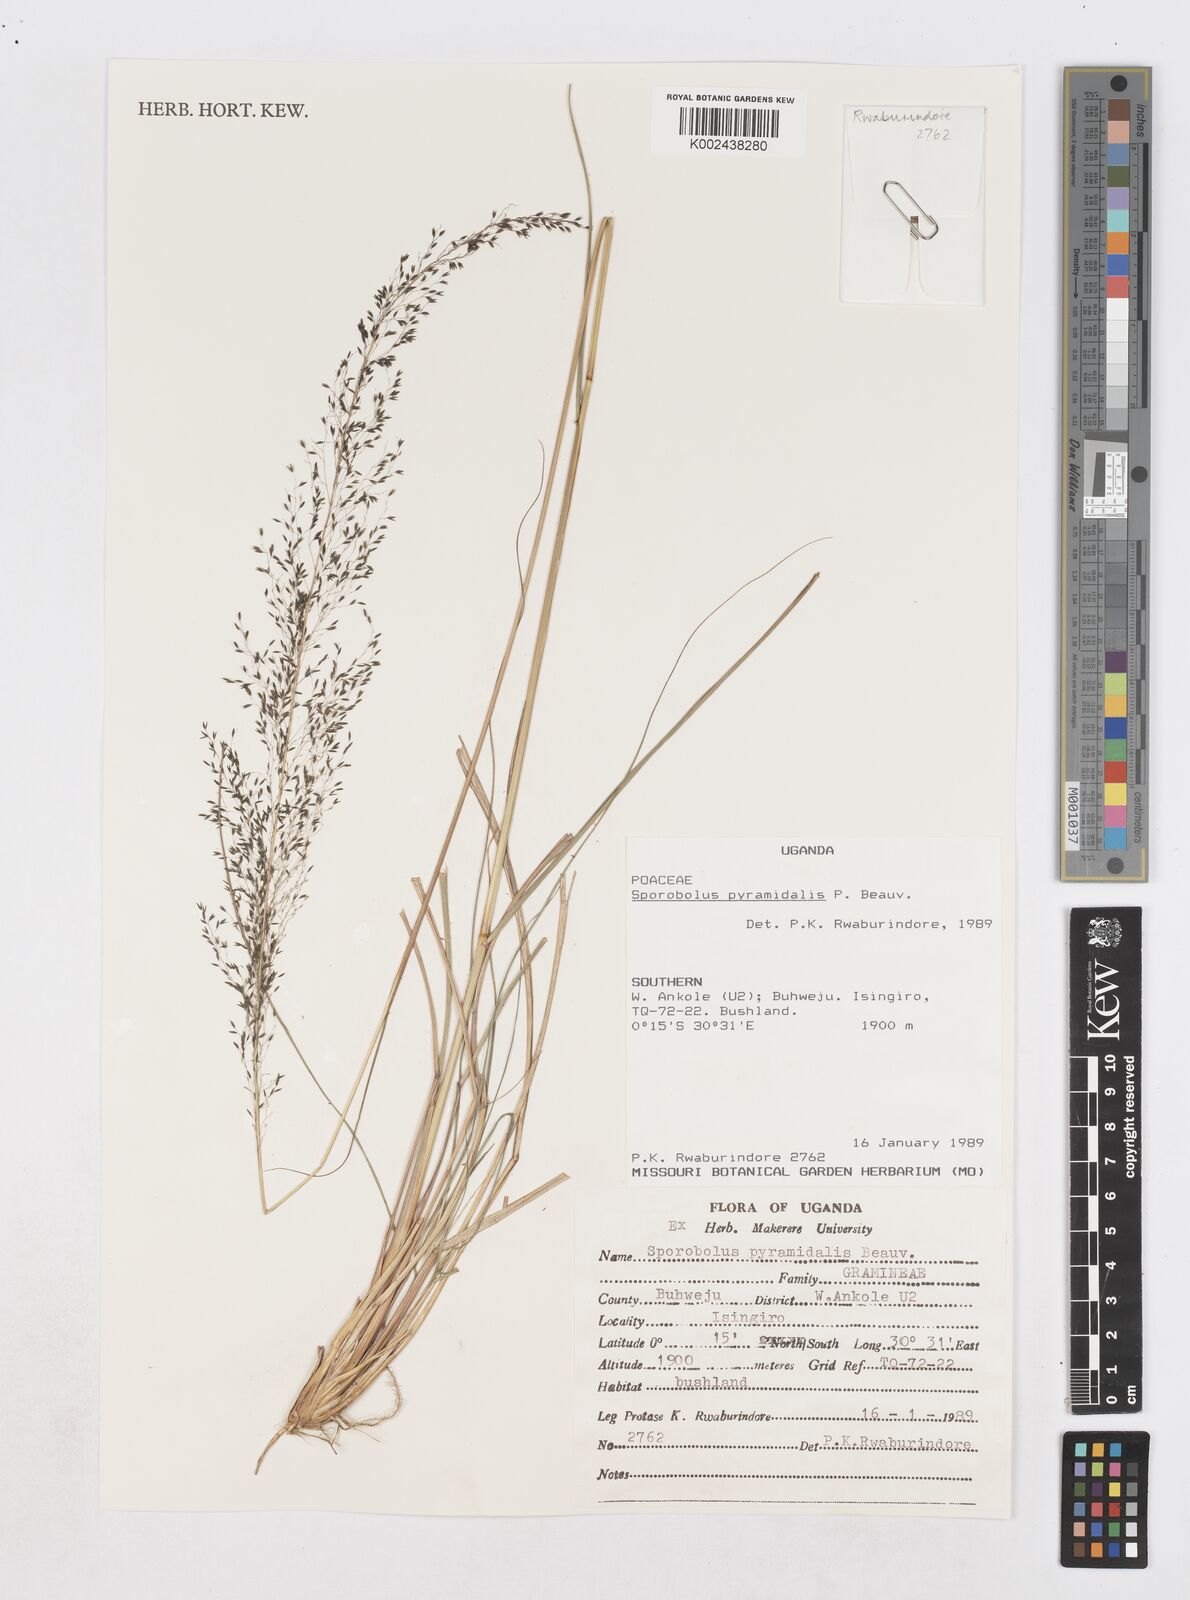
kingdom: Plantae
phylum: Tracheophyta
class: Liliopsida
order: Poales
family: Poaceae
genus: Sporobolus
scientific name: Sporobolus pyramidalis
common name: West indian dropseed
